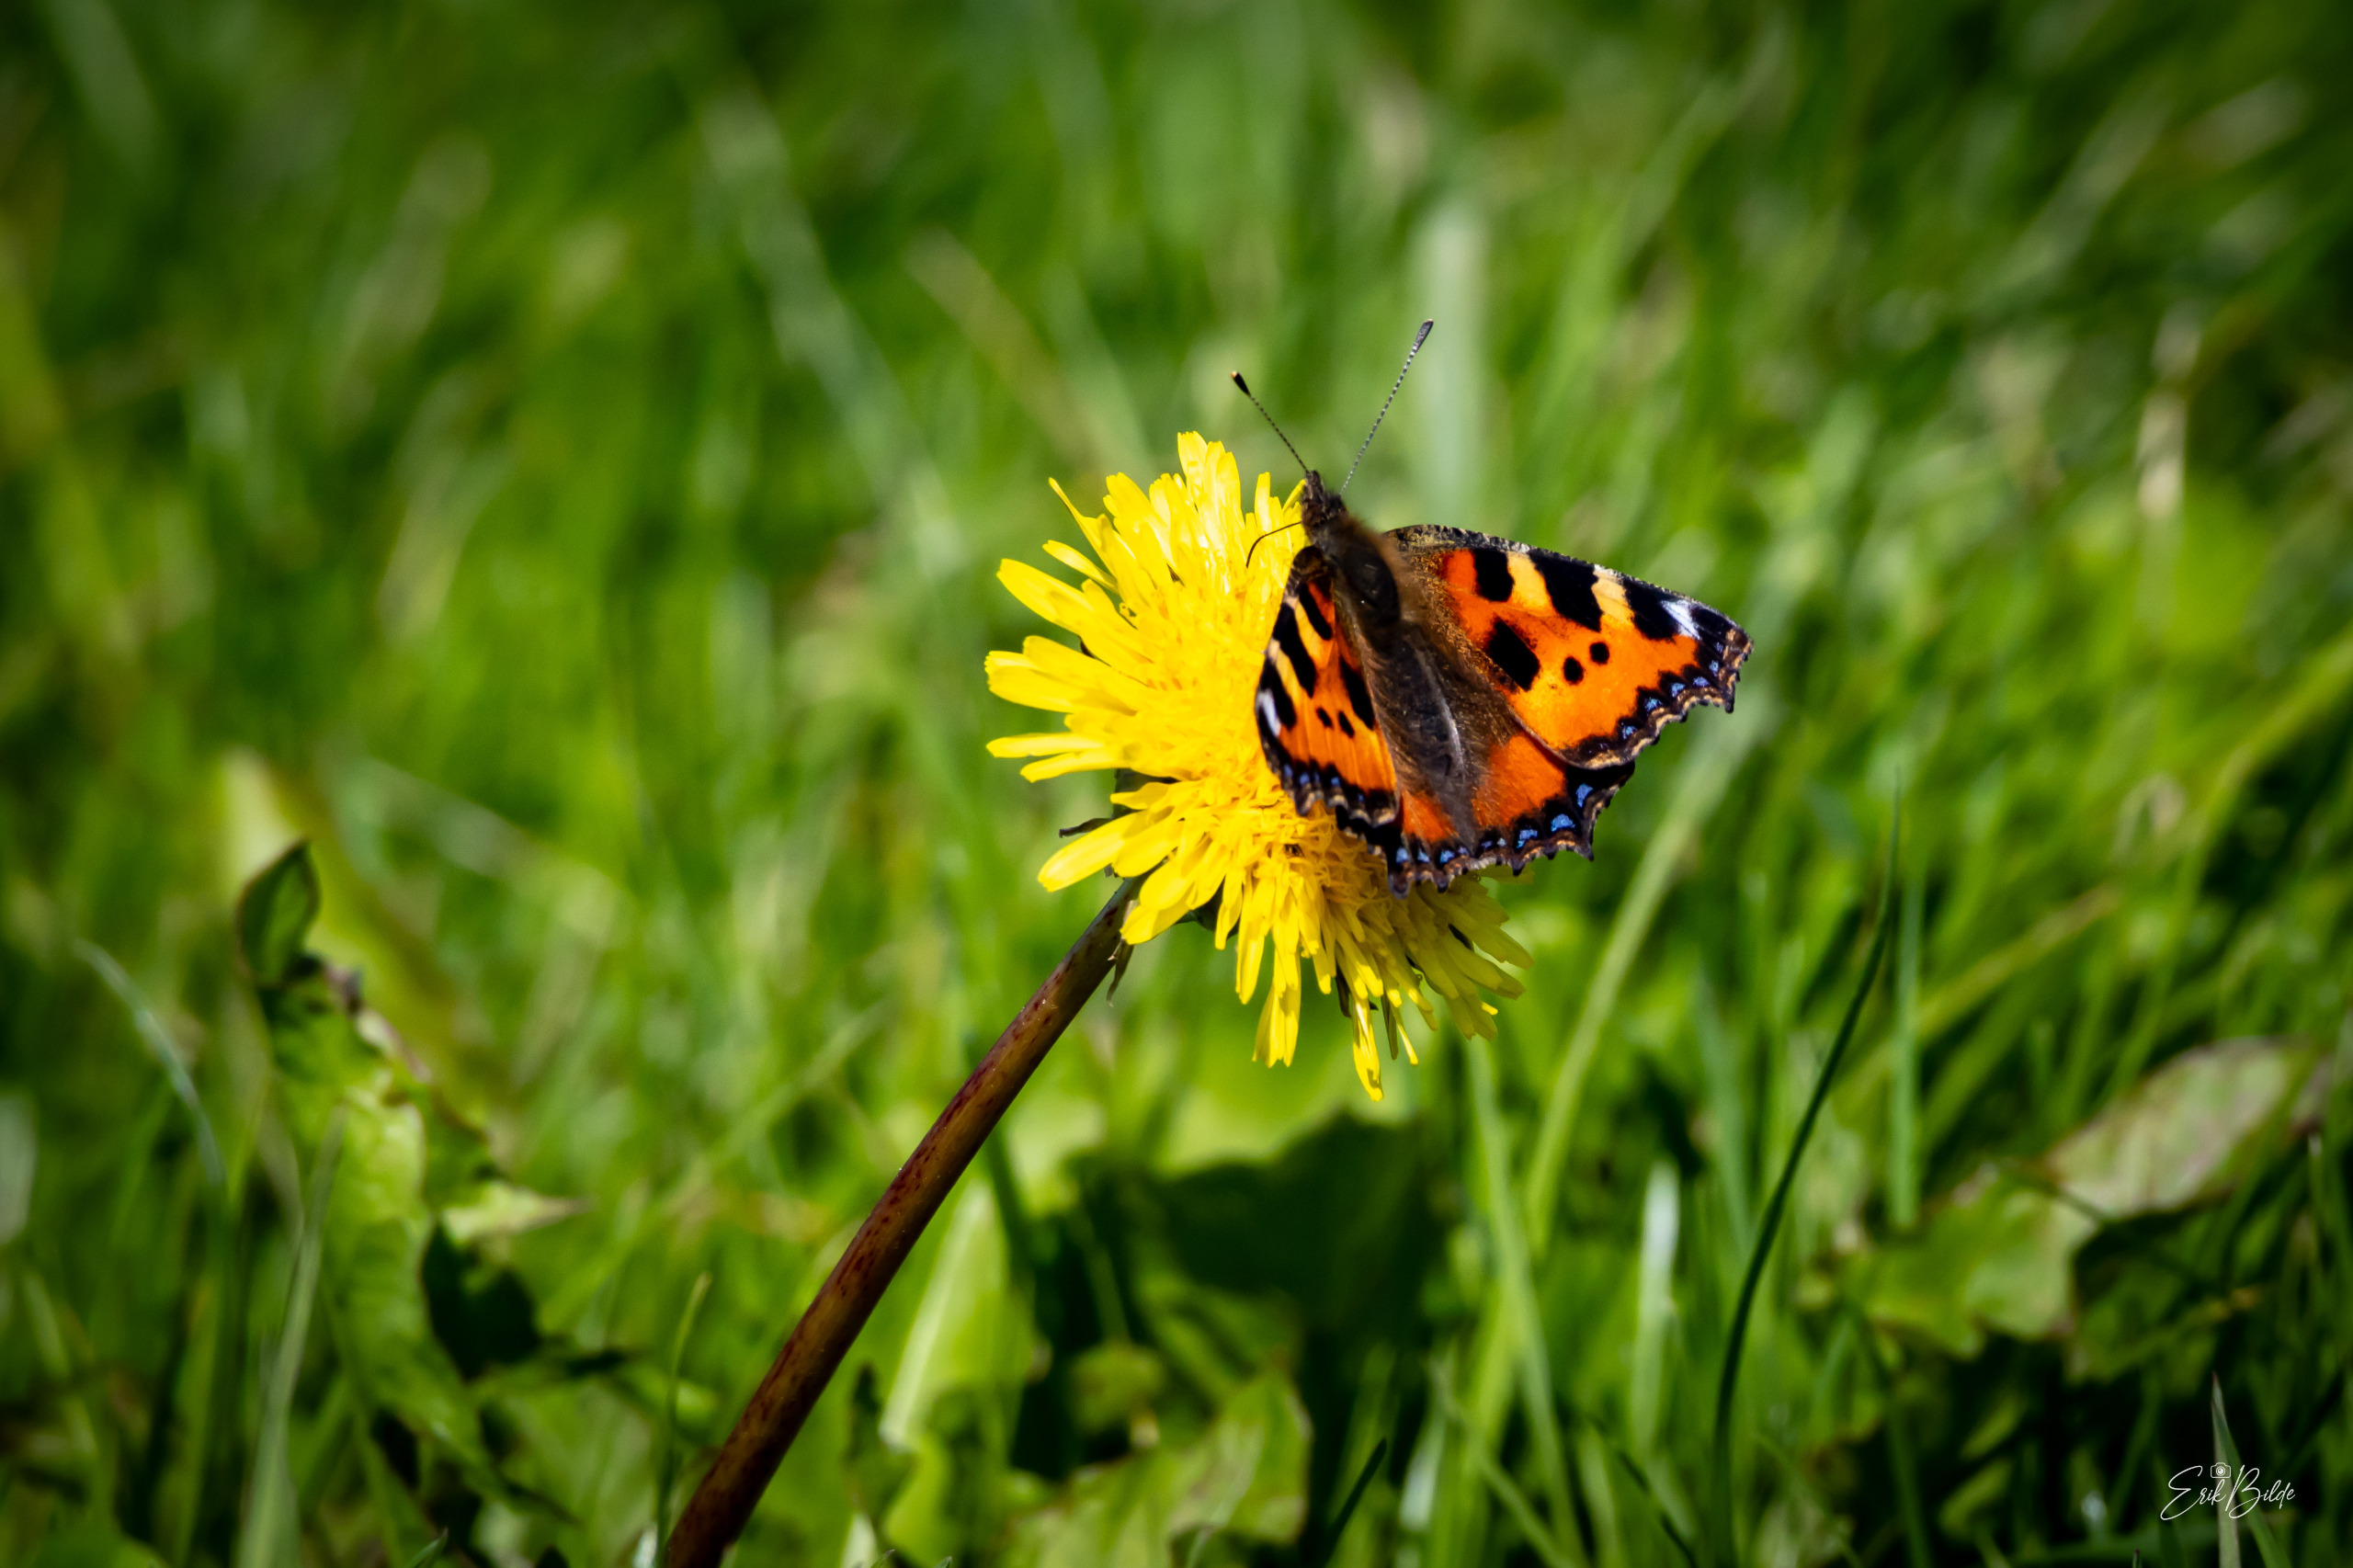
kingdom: Animalia
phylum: Arthropoda
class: Insecta
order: Lepidoptera
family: Nymphalidae
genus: Aglais
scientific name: Aglais urticae
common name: Nældens takvinge
